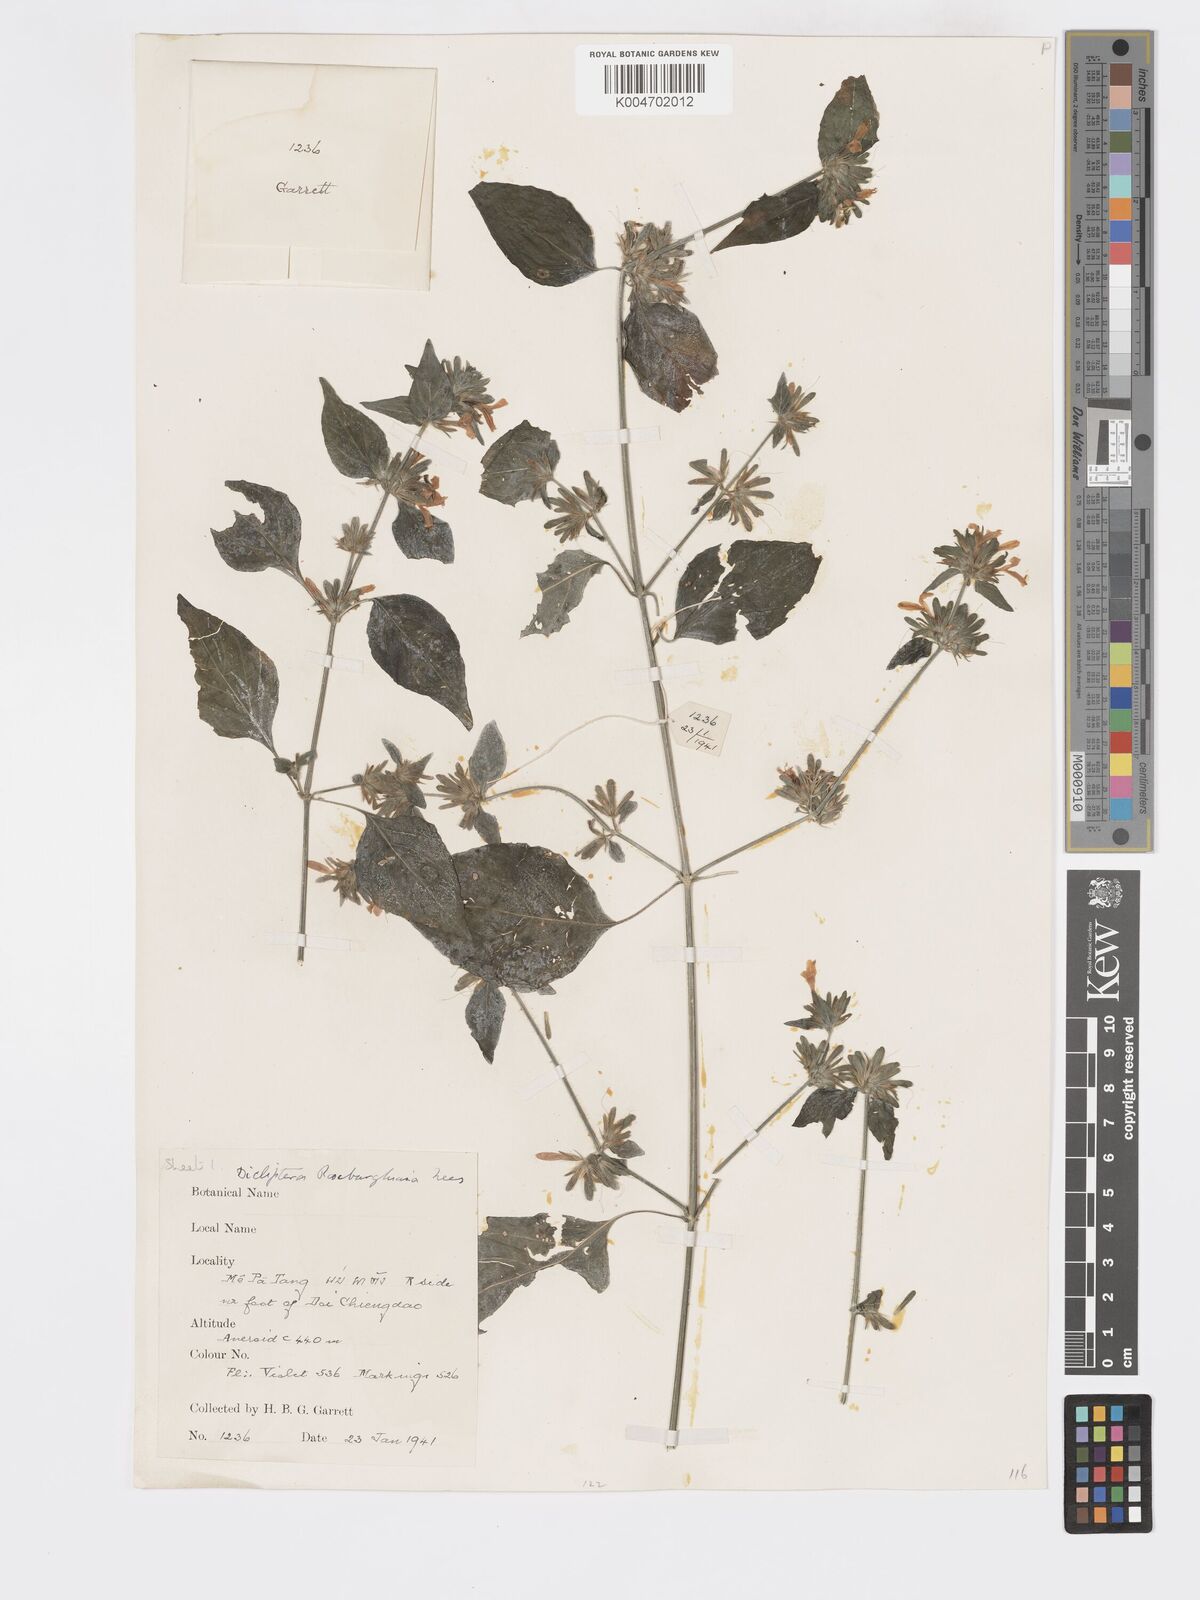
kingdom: Plantae
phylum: Tracheophyta
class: Magnoliopsida
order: Lamiales
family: Acanthaceae
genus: Dicliptera
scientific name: Dicliptera chinensis
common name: Chinese foldwing
